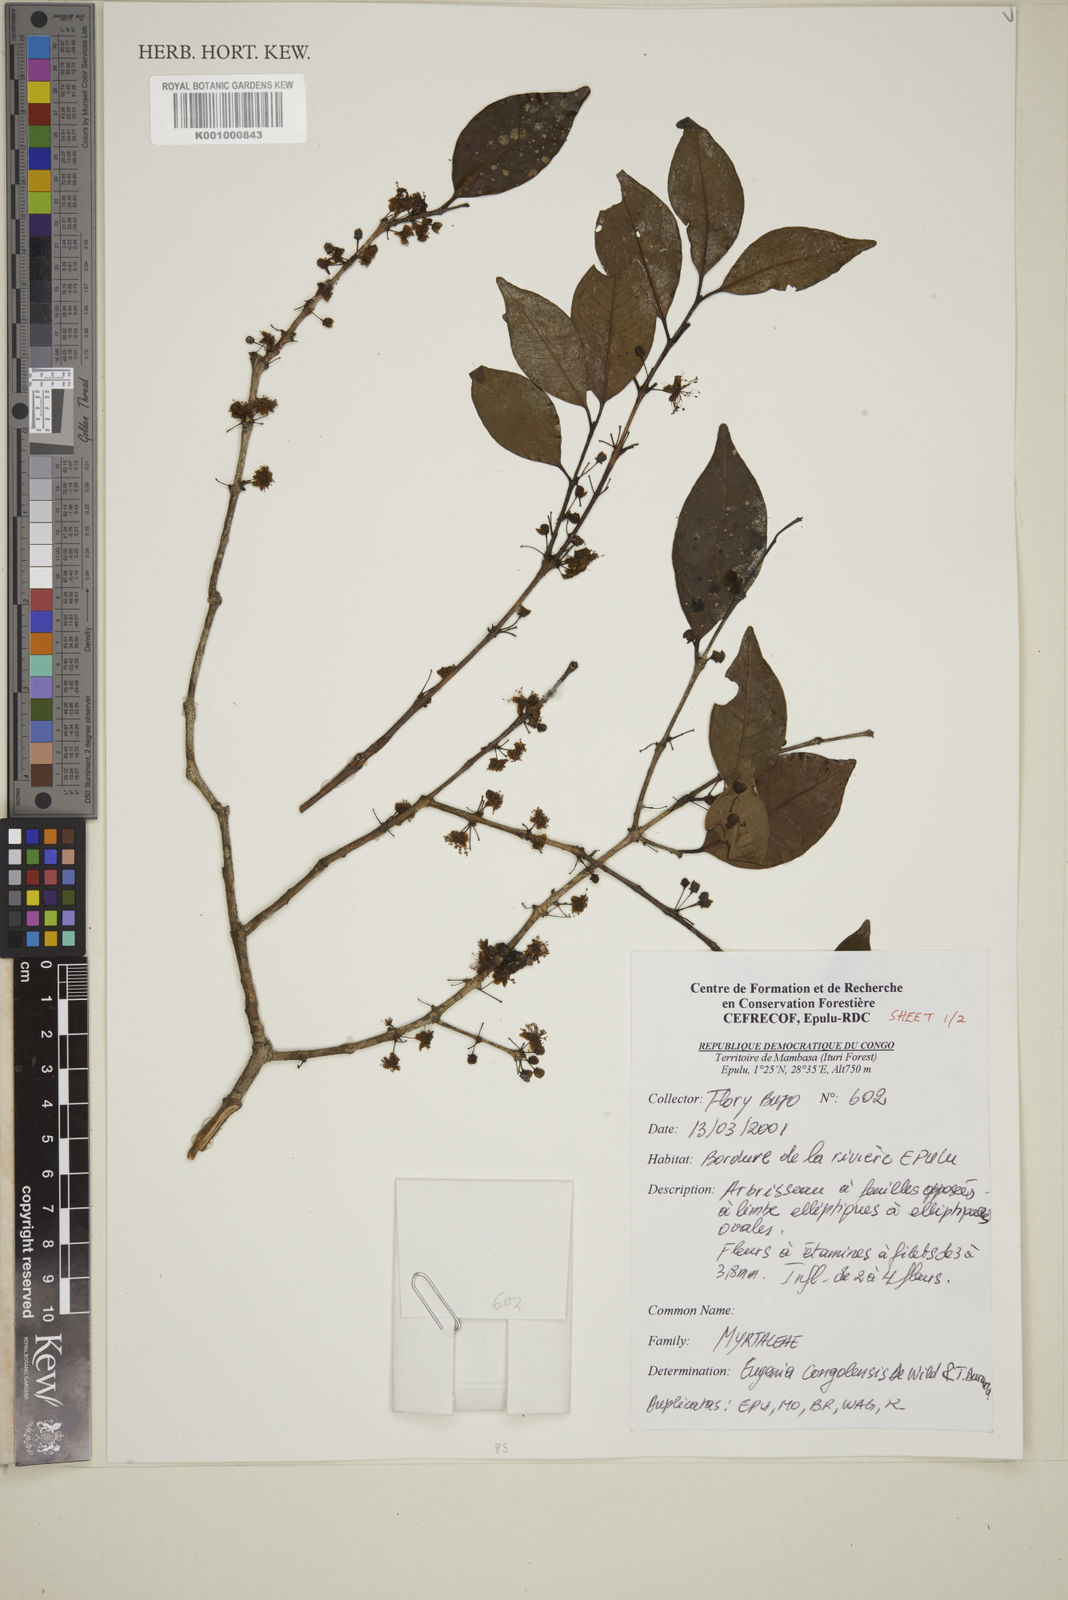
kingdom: Plantae
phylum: Tracheophyta
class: Magnoliopsida
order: Myrtales
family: Myrtaceae
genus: Eugenia
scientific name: Eugenia congolensis
